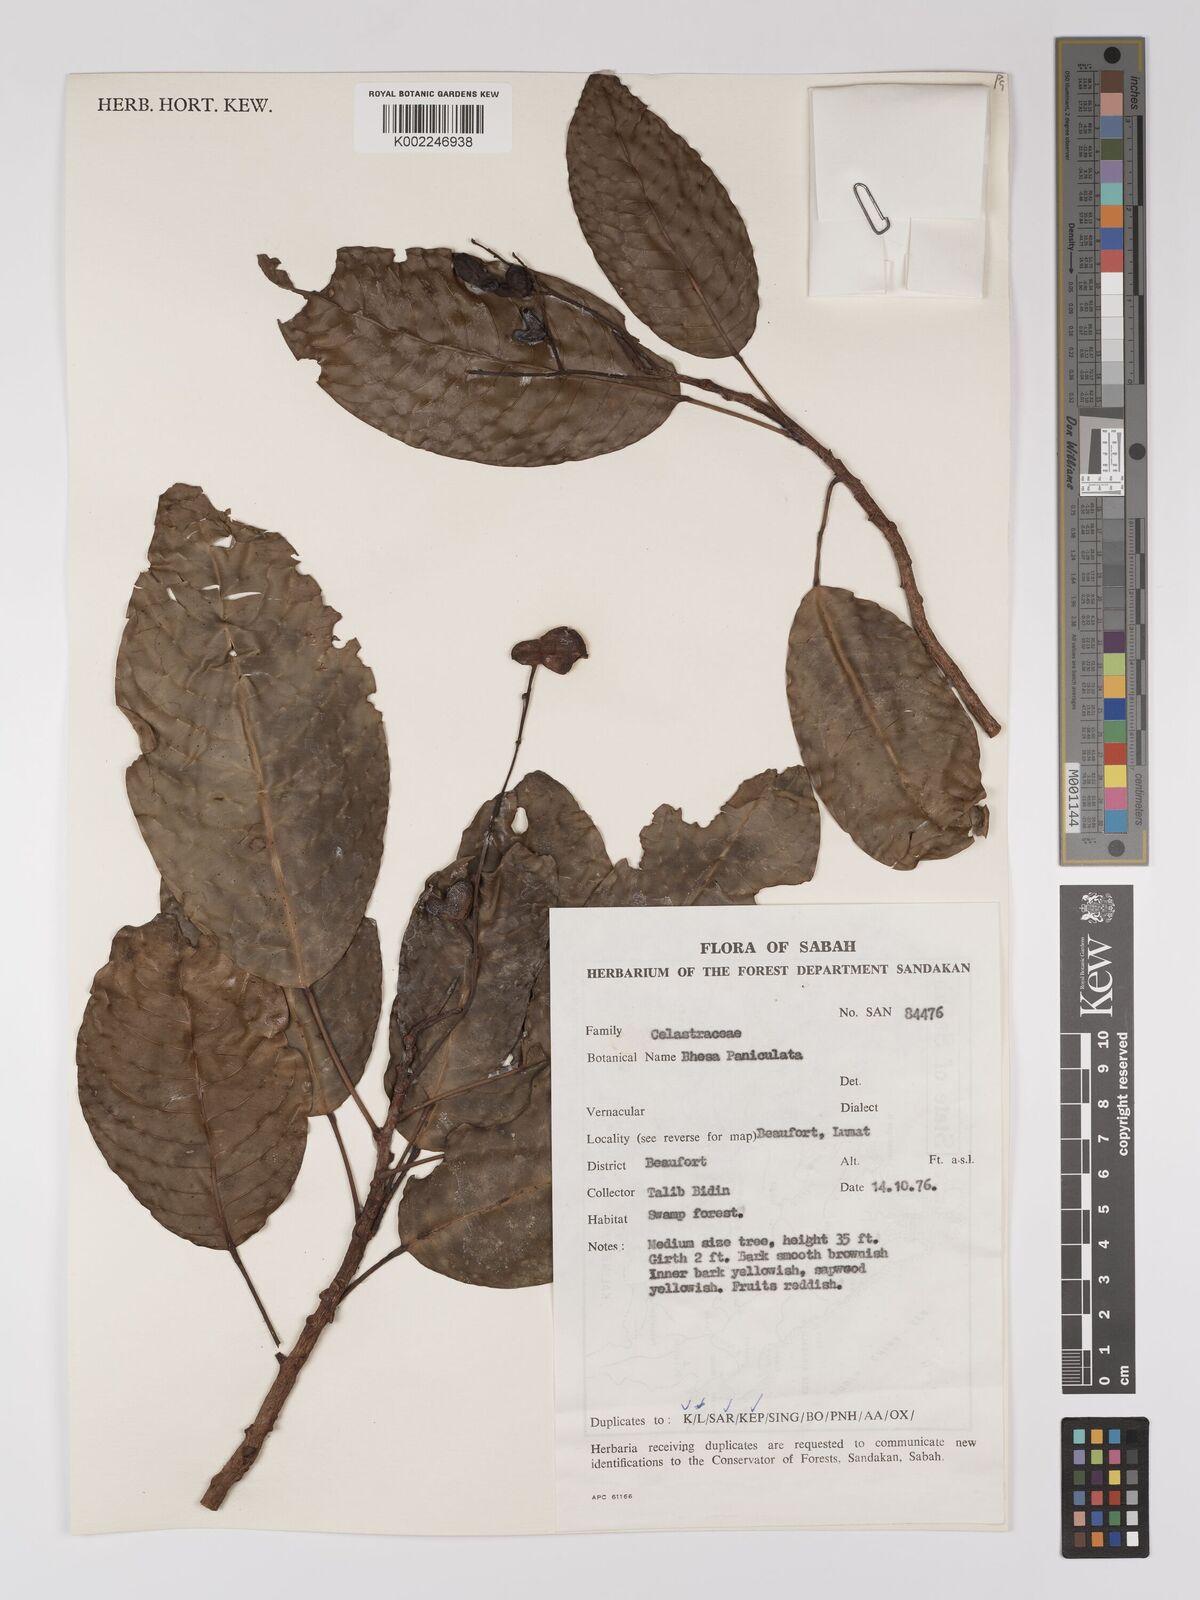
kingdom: Plantae
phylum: Tracheophyta
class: Magnoliopsida
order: Malpighiales
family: Centroplacaceae
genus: Bhesa
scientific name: Bhesa paniculata
